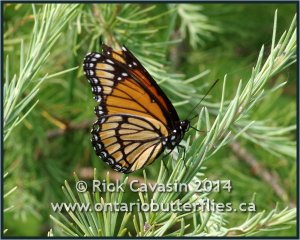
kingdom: Animalia
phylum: Arthropoda
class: Insecta
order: Lepidoptera
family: Nymphalidae
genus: Limenitis
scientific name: Limenitis archippus
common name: Viceroy
